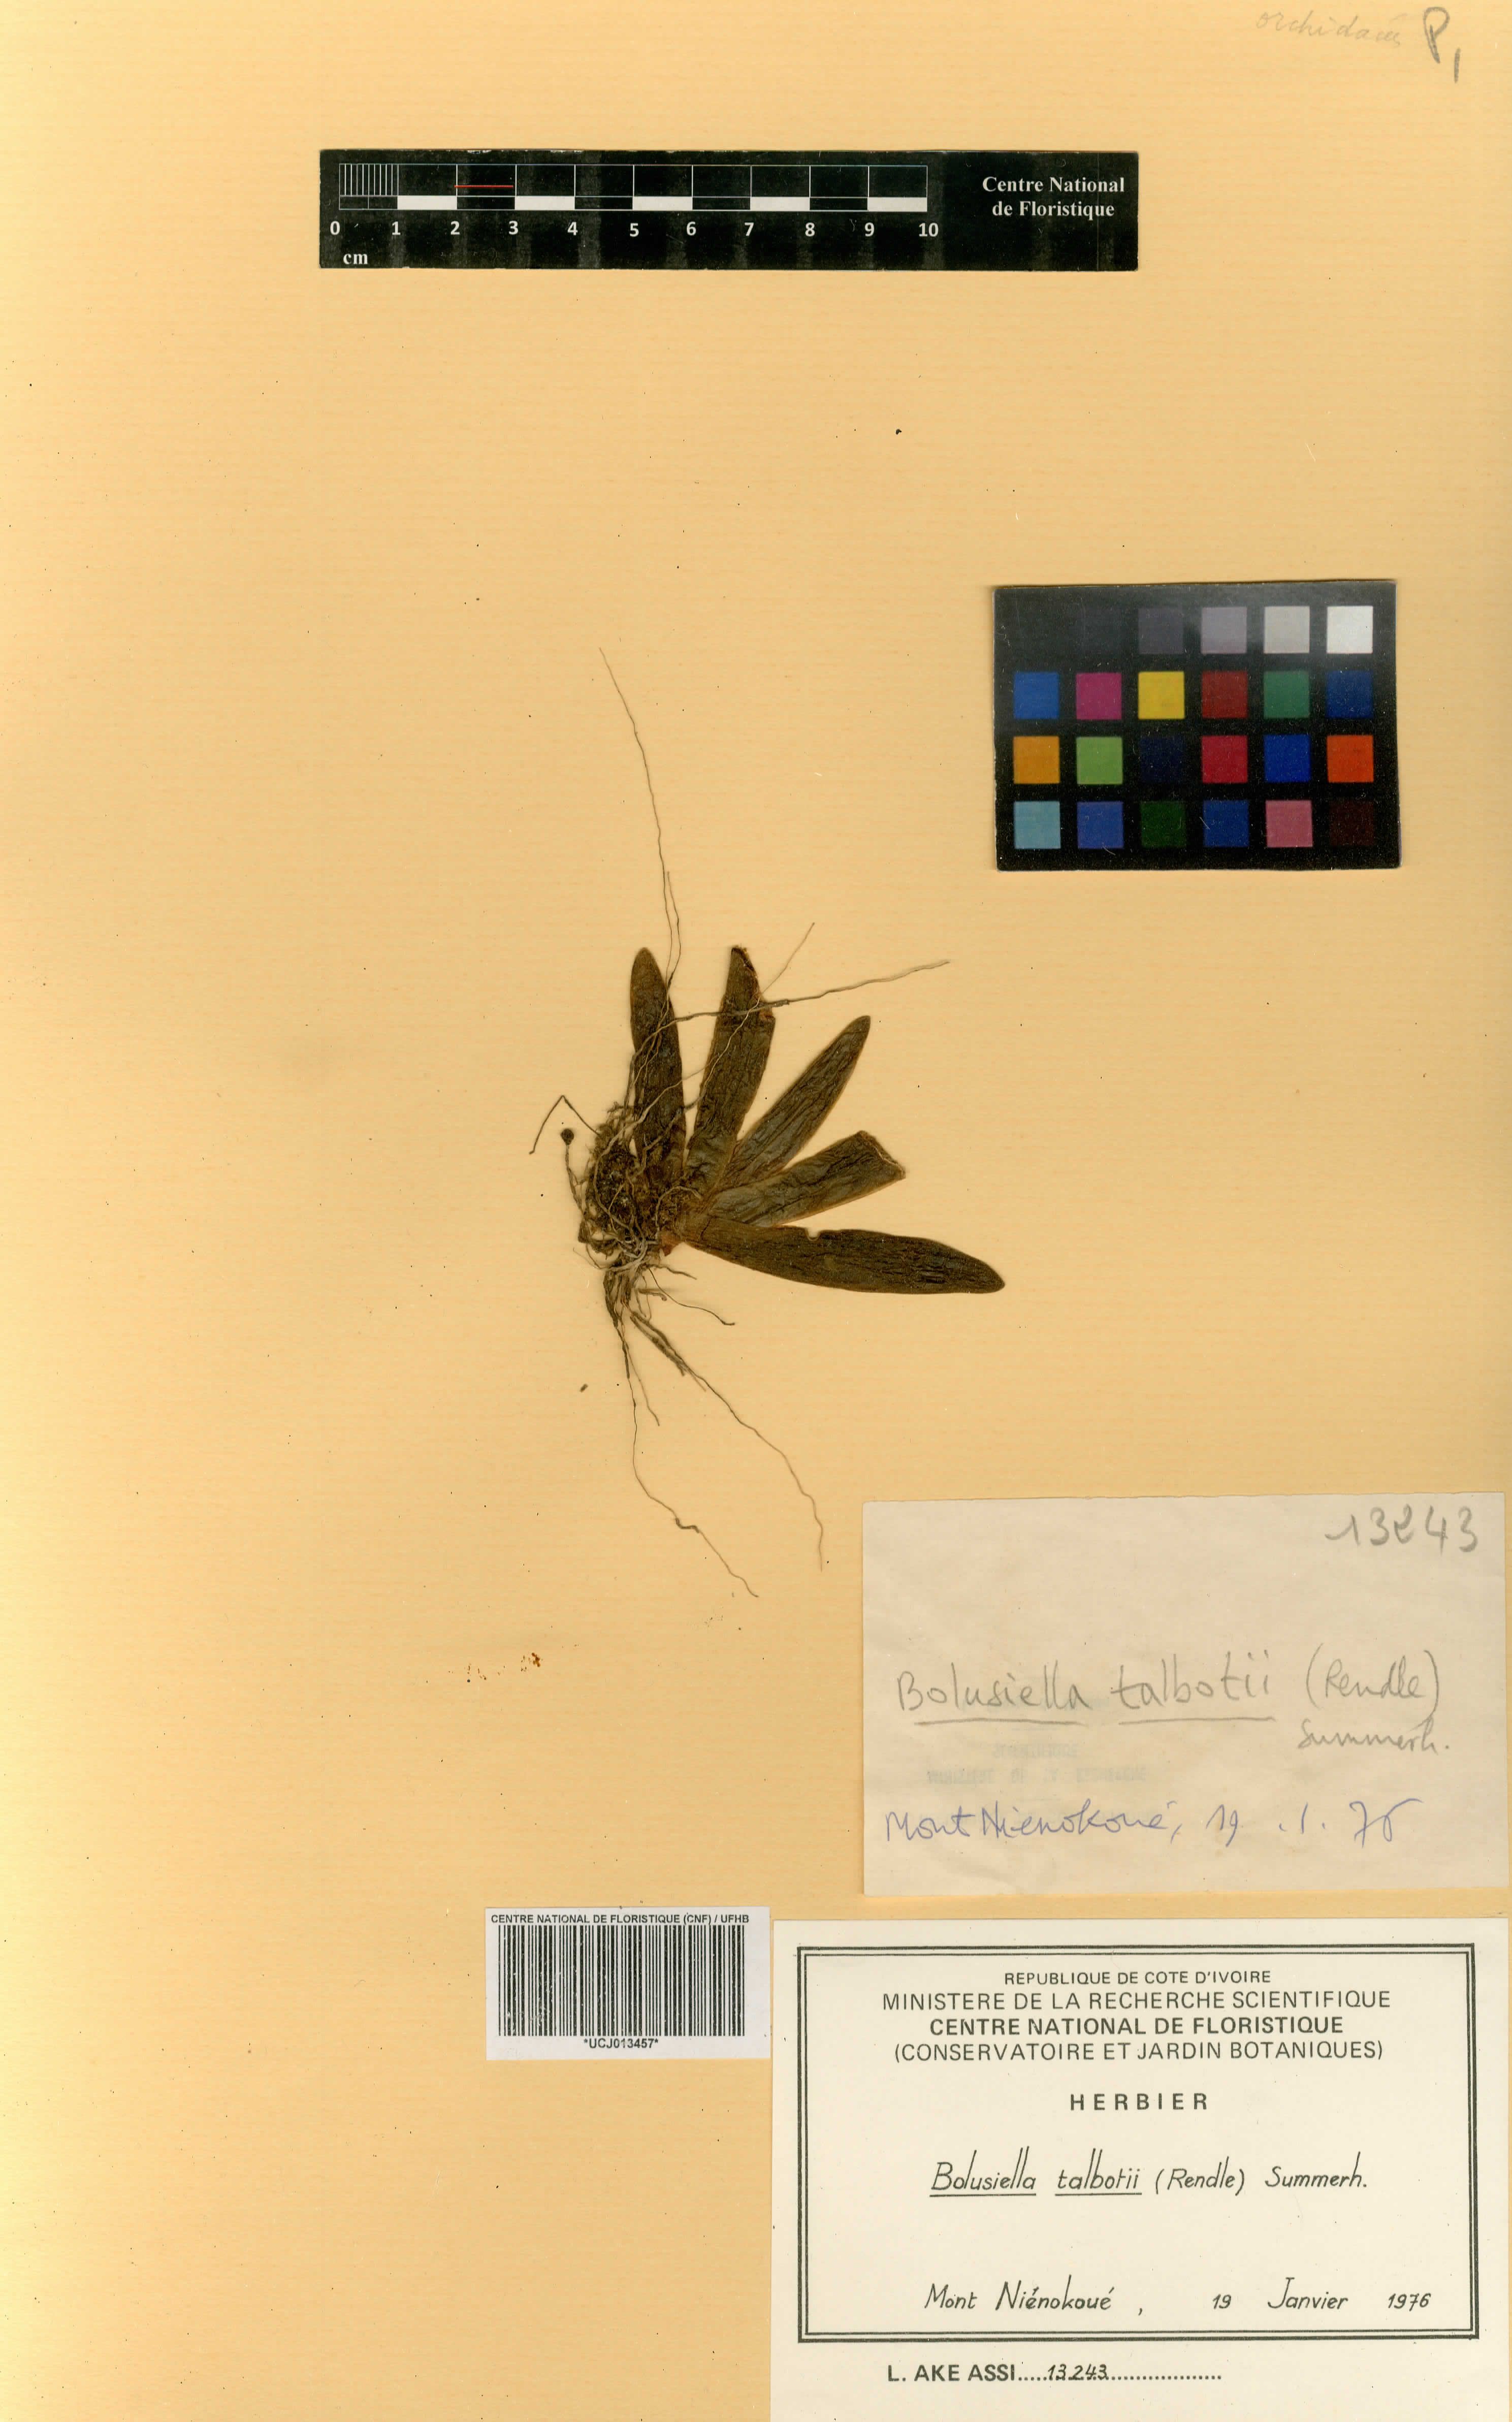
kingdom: Plantae
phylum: Tracheophyta
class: Liliopsida
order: Asparagales
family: Orchidaceae
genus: Bolusiella
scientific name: Bolusiella talbotii
